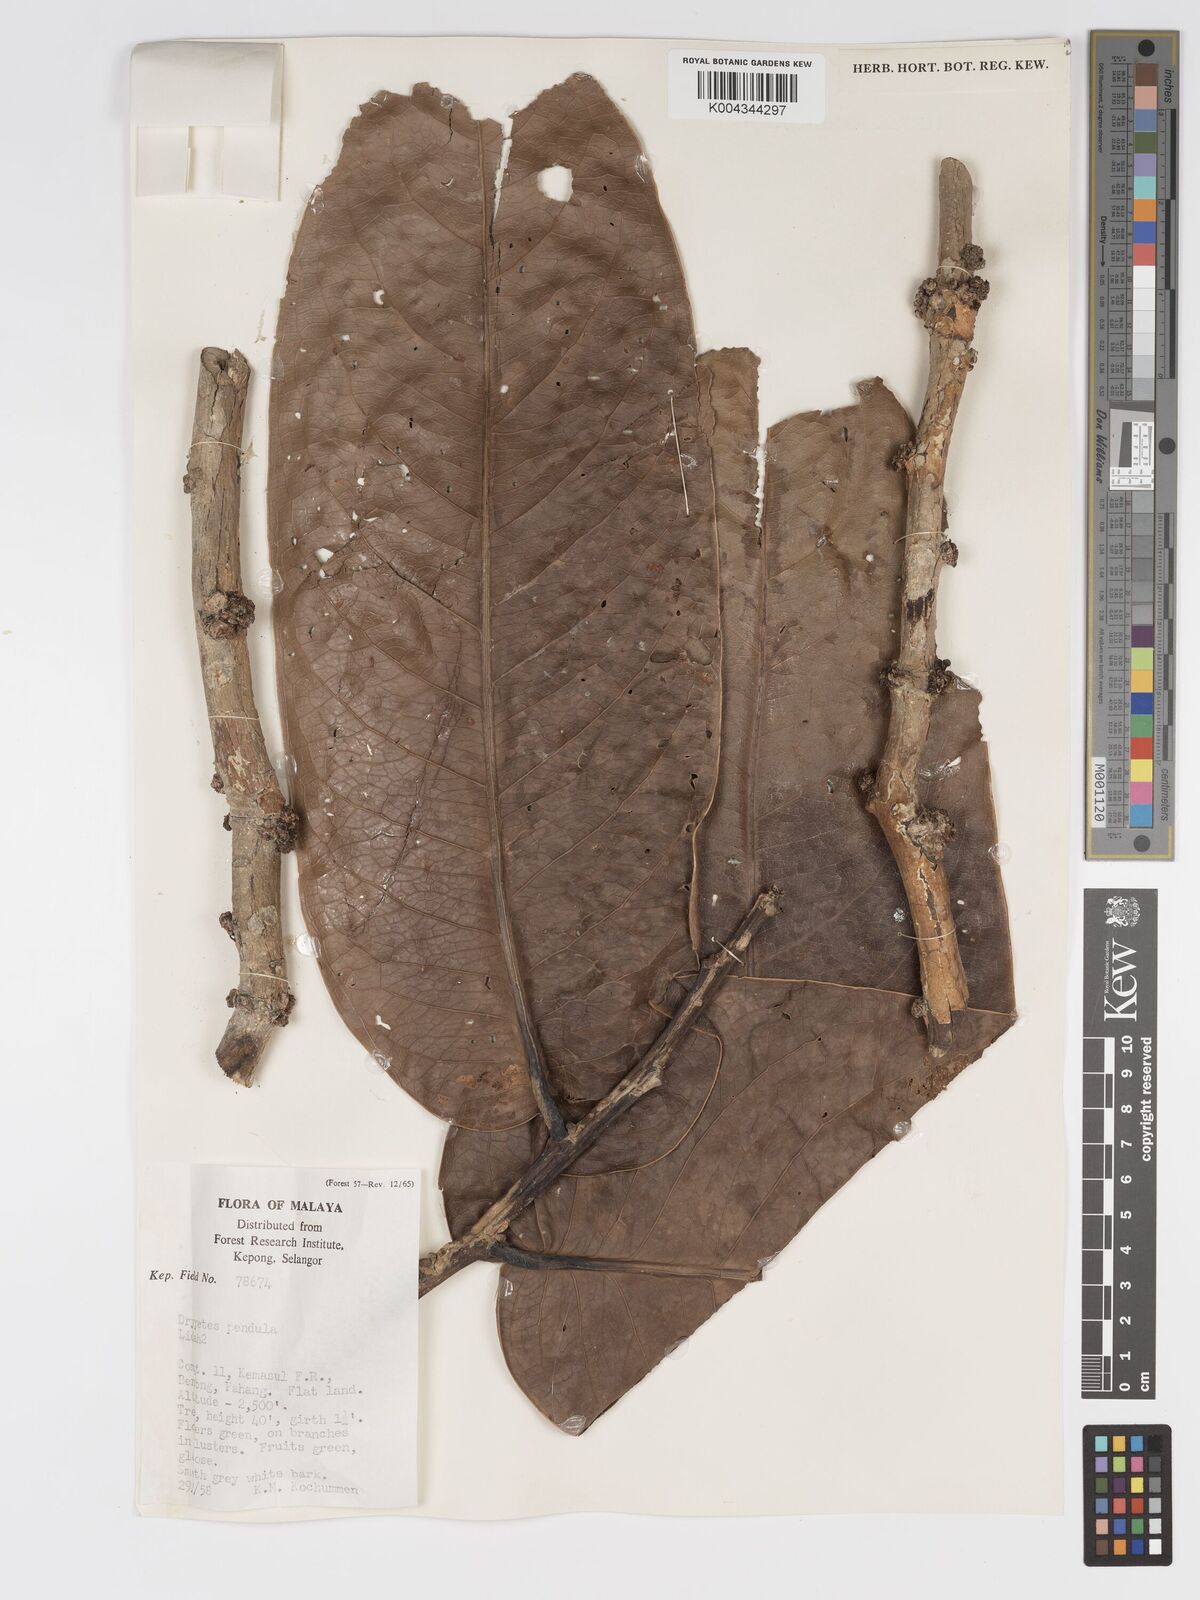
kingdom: Plantae
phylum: Tracheophyta
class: Magnoliopsida
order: Malpighiales
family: Putranjivaceae
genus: Drypetes
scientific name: Drypetes pendula
